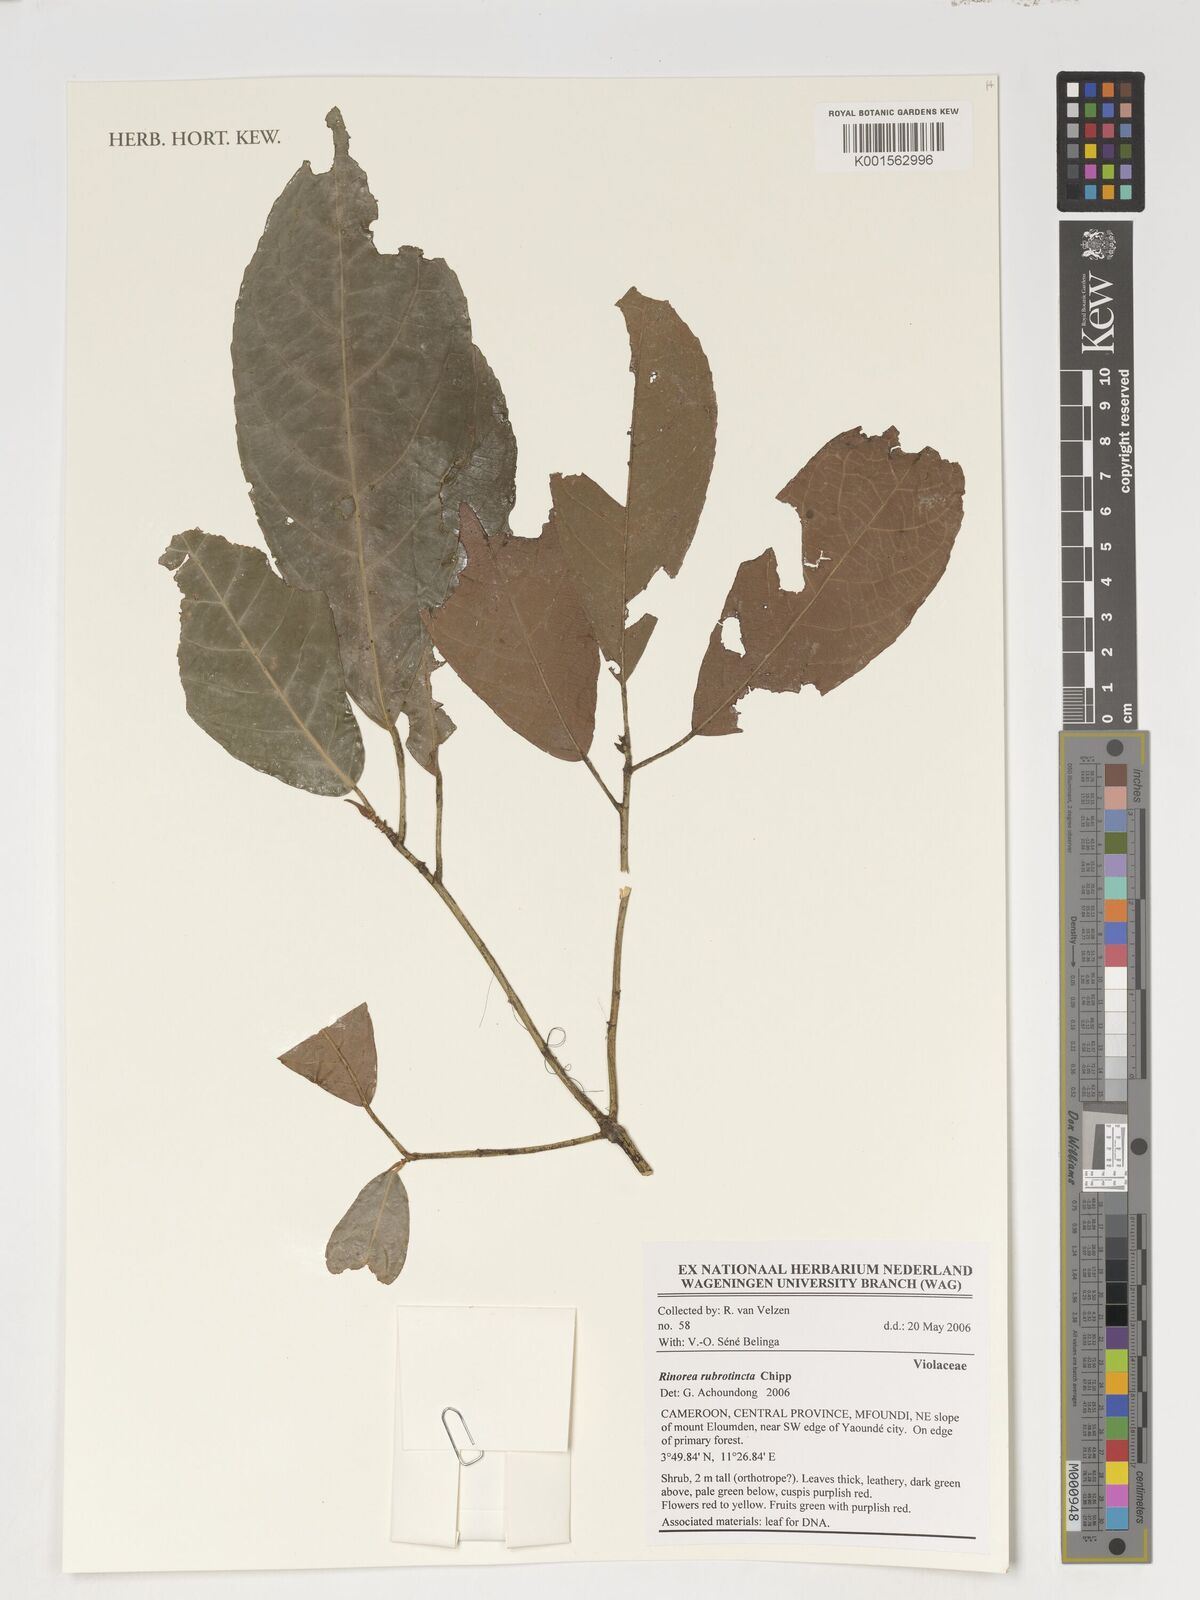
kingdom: Plantae
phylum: Tracheophyta
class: Magnoliopsida
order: Malpighiales
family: Violaceae
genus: Rinorea
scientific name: Rinorea rubrotincta
